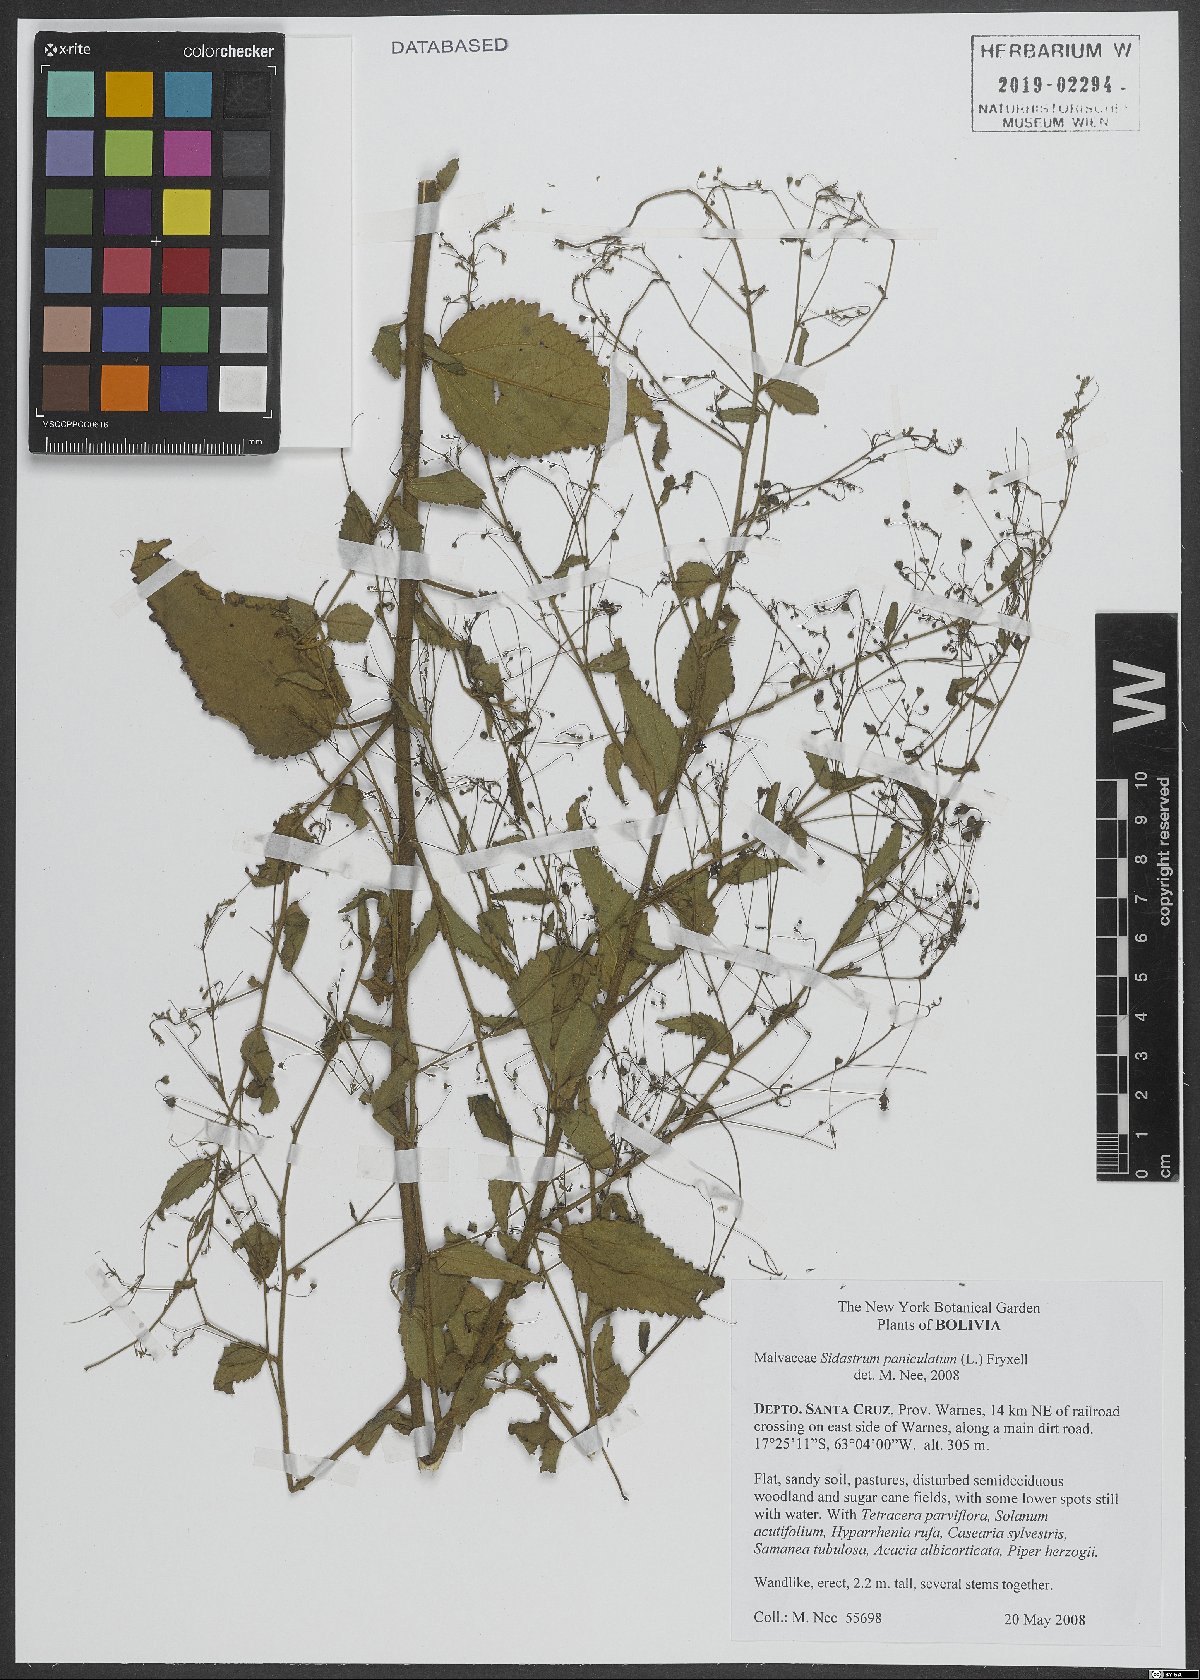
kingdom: Plantae
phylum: Tracheophyta
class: Magnoliopsida
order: Malvales
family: Malvaceae
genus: Sidastrum
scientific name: Sidastrum paniculatum
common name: Panicled sandmallow
